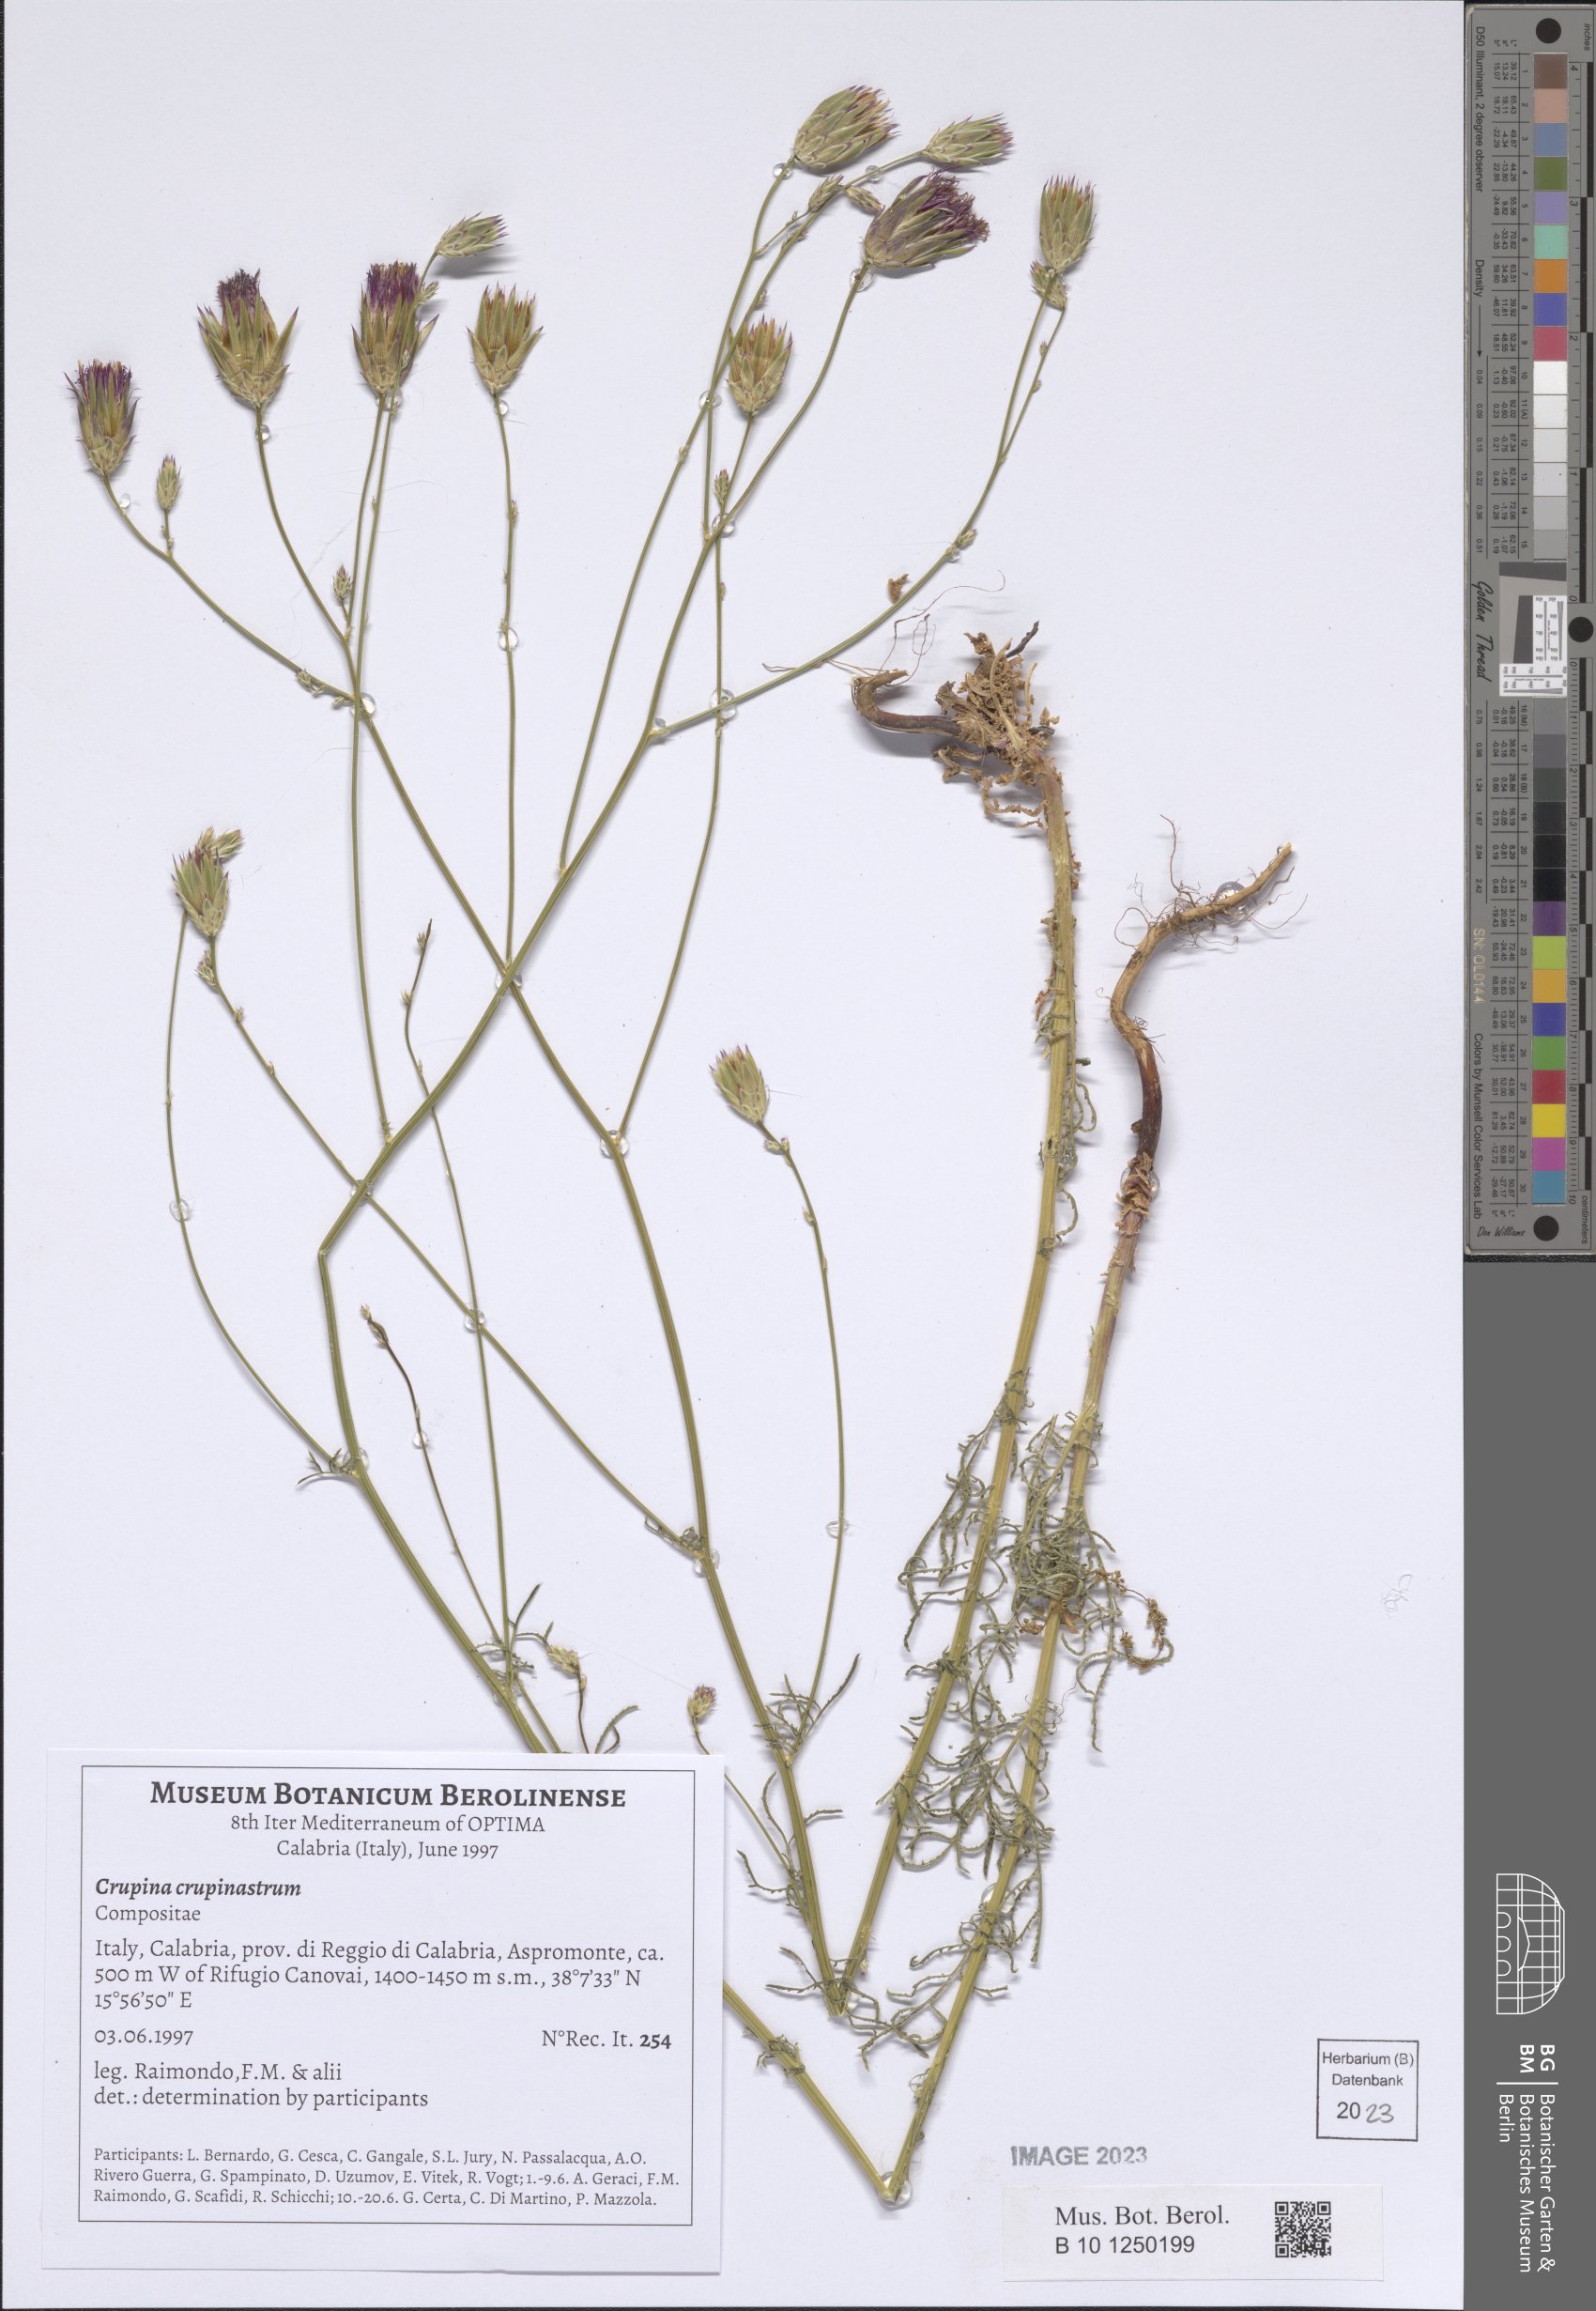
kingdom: Plantae
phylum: Tracheophyta
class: Magnoliopsida
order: Asterales
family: Asteraceae
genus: Crupina
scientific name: Crupina crupinastrum
